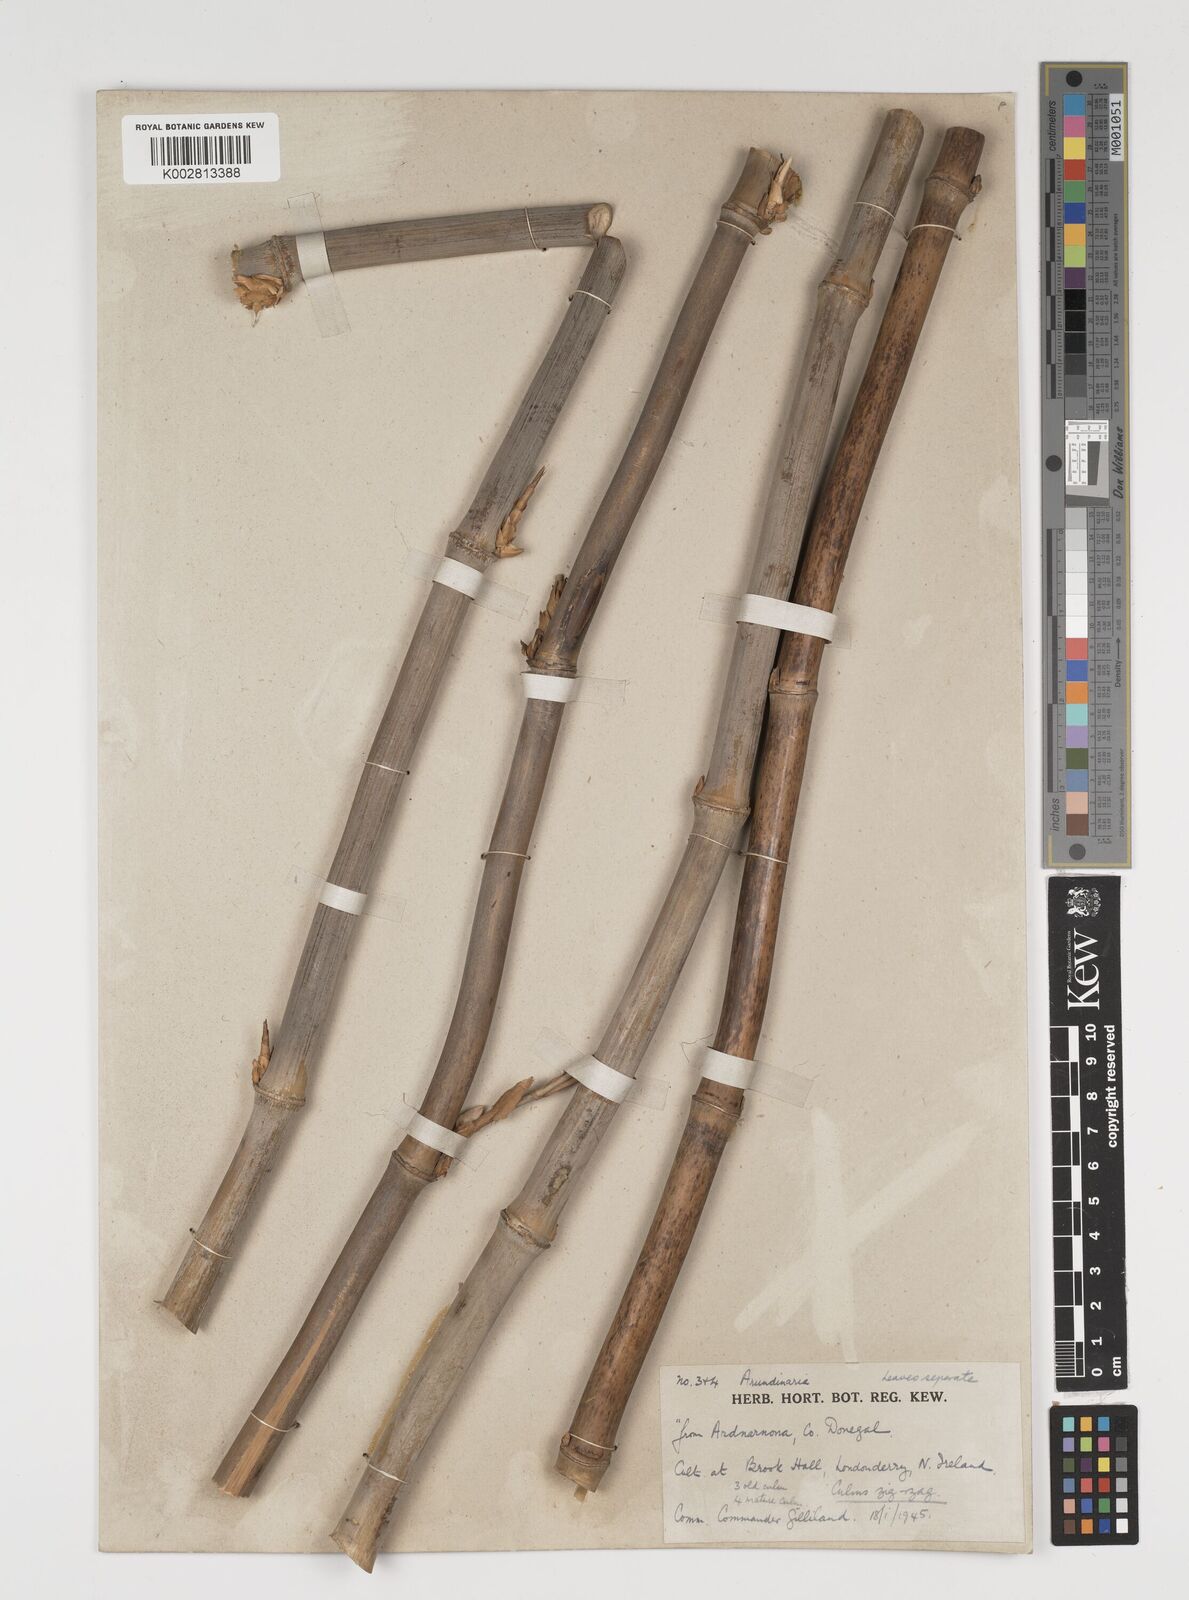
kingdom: Plantae
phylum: Tracheophyta
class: Liliopsida
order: Poales
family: Poaceae
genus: Thamnocalamus
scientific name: Thamnocalamus spathiflorus
